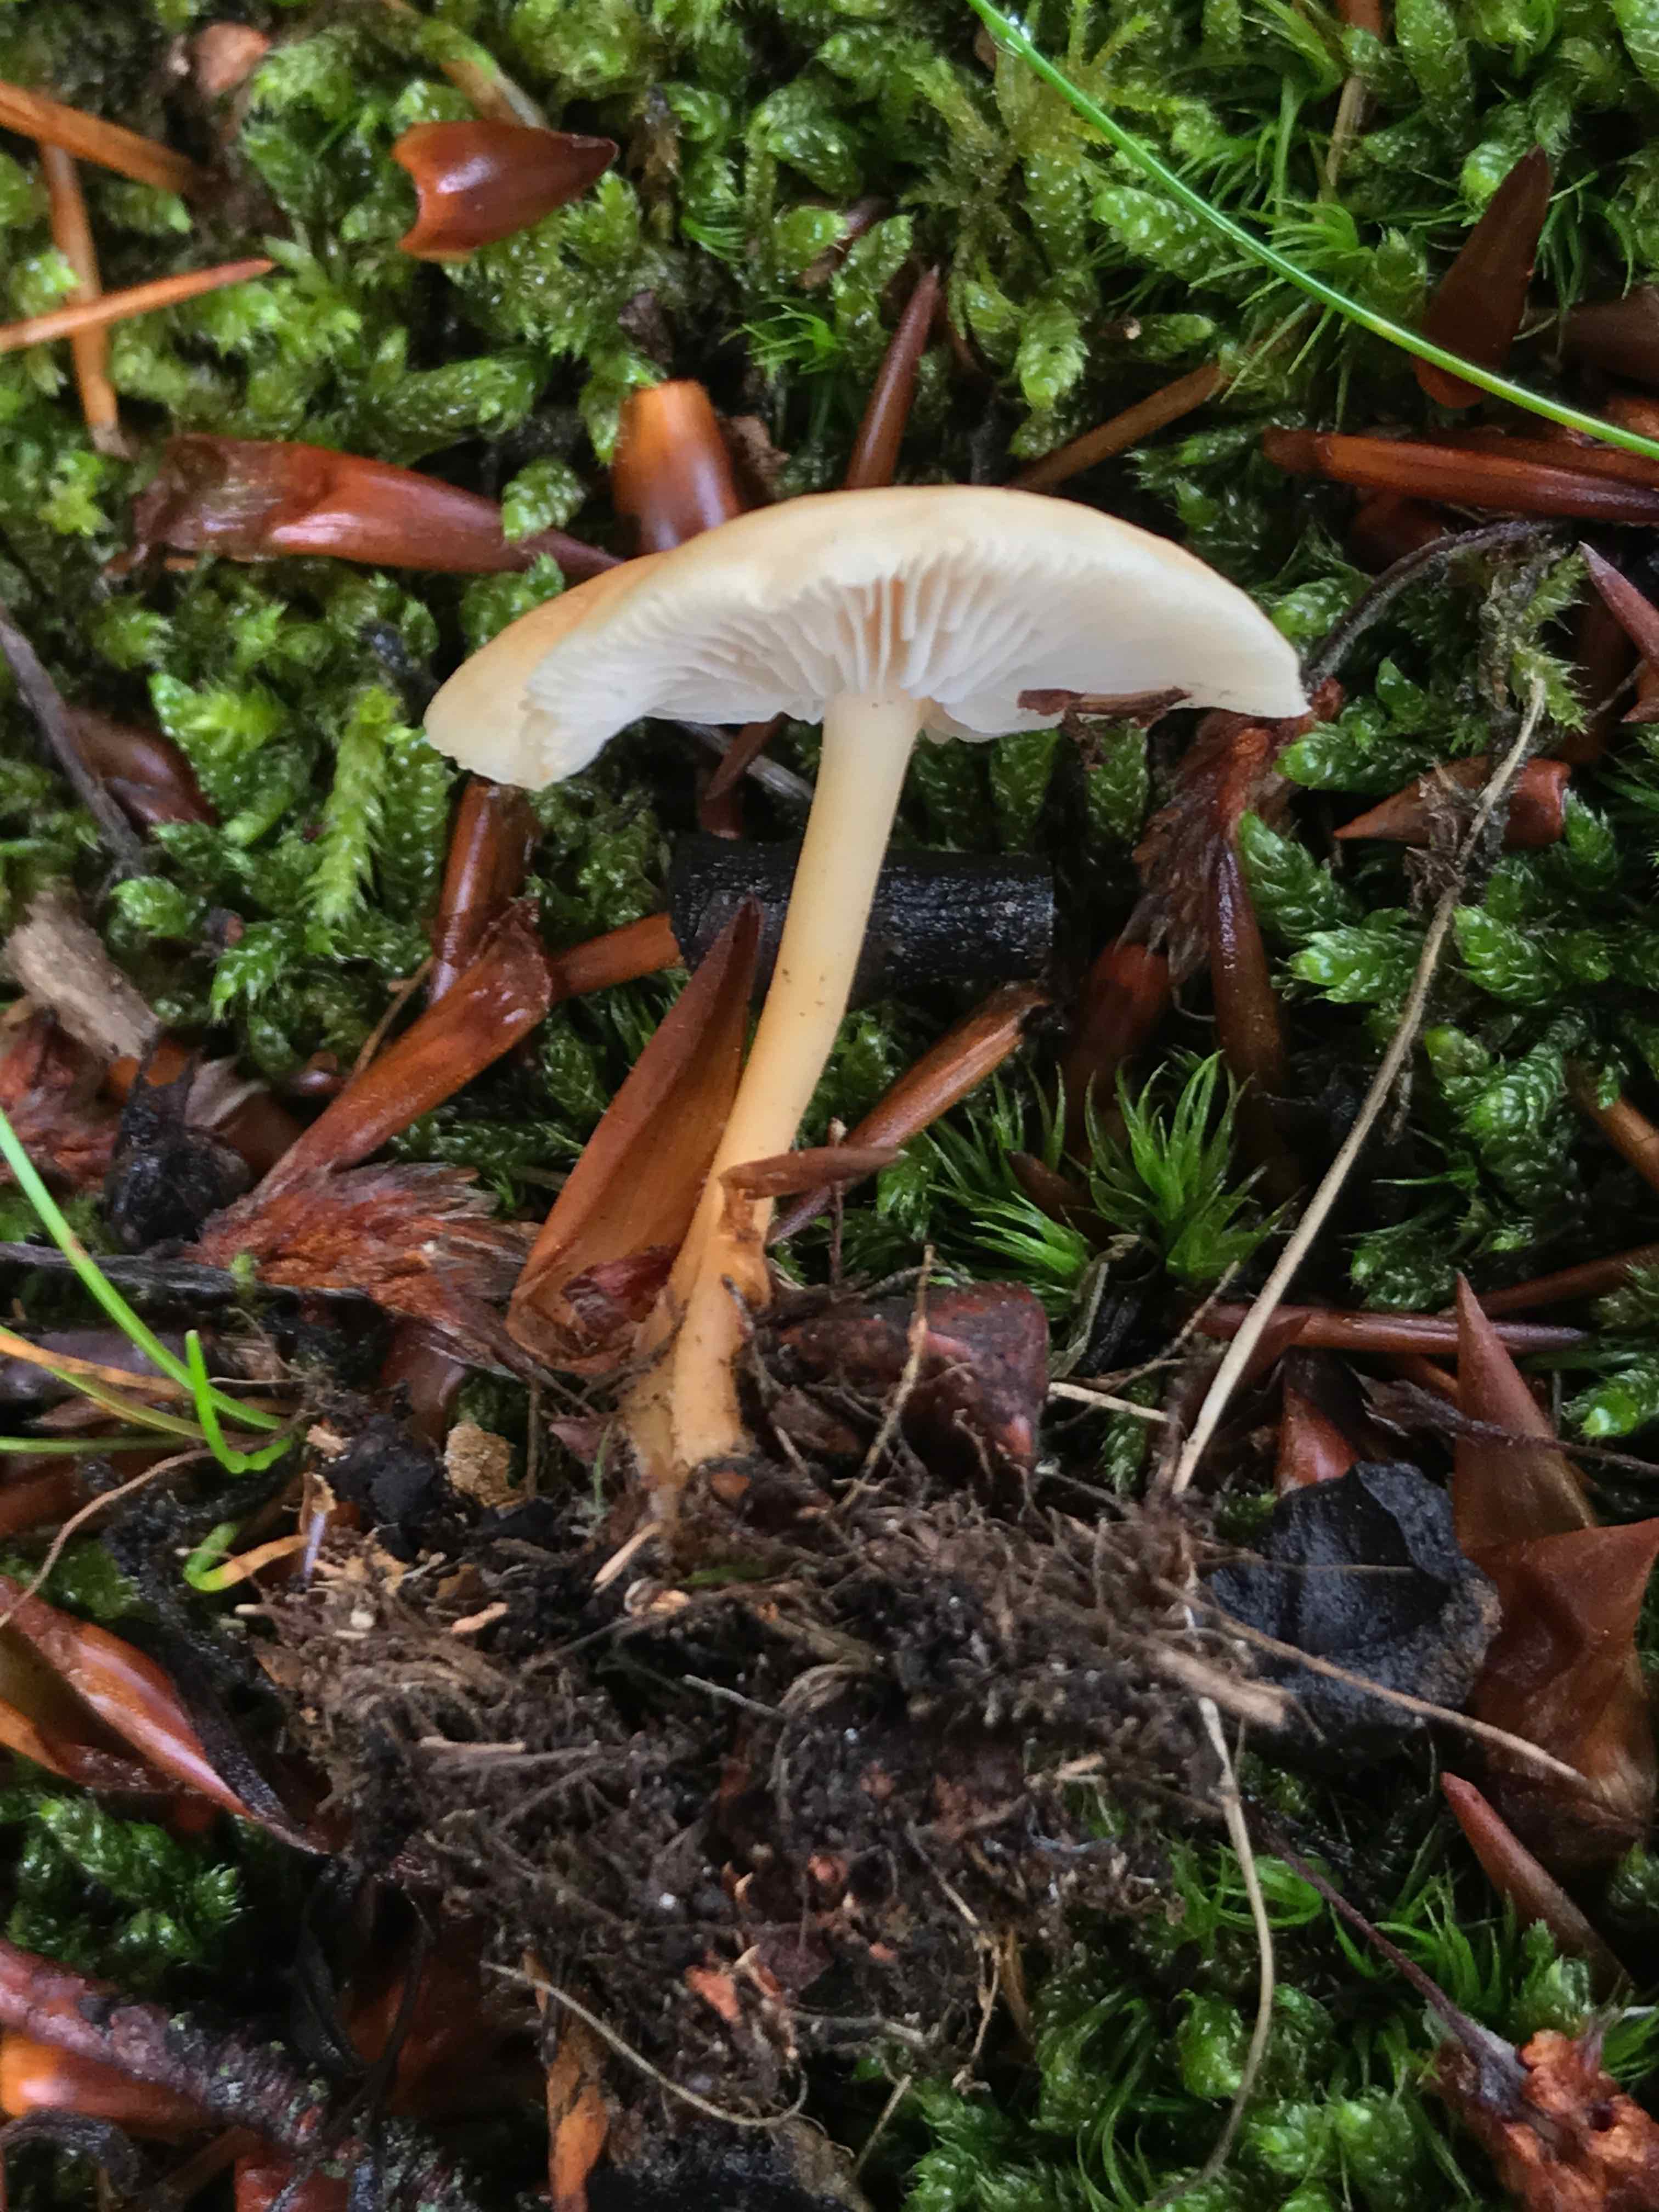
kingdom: Fungi
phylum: Basidiomycota
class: Agaricomycetes
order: Agaricales
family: Omphalotaceae
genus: Gymnopus
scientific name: Gymnopus dryophilus
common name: løv-fladhat
